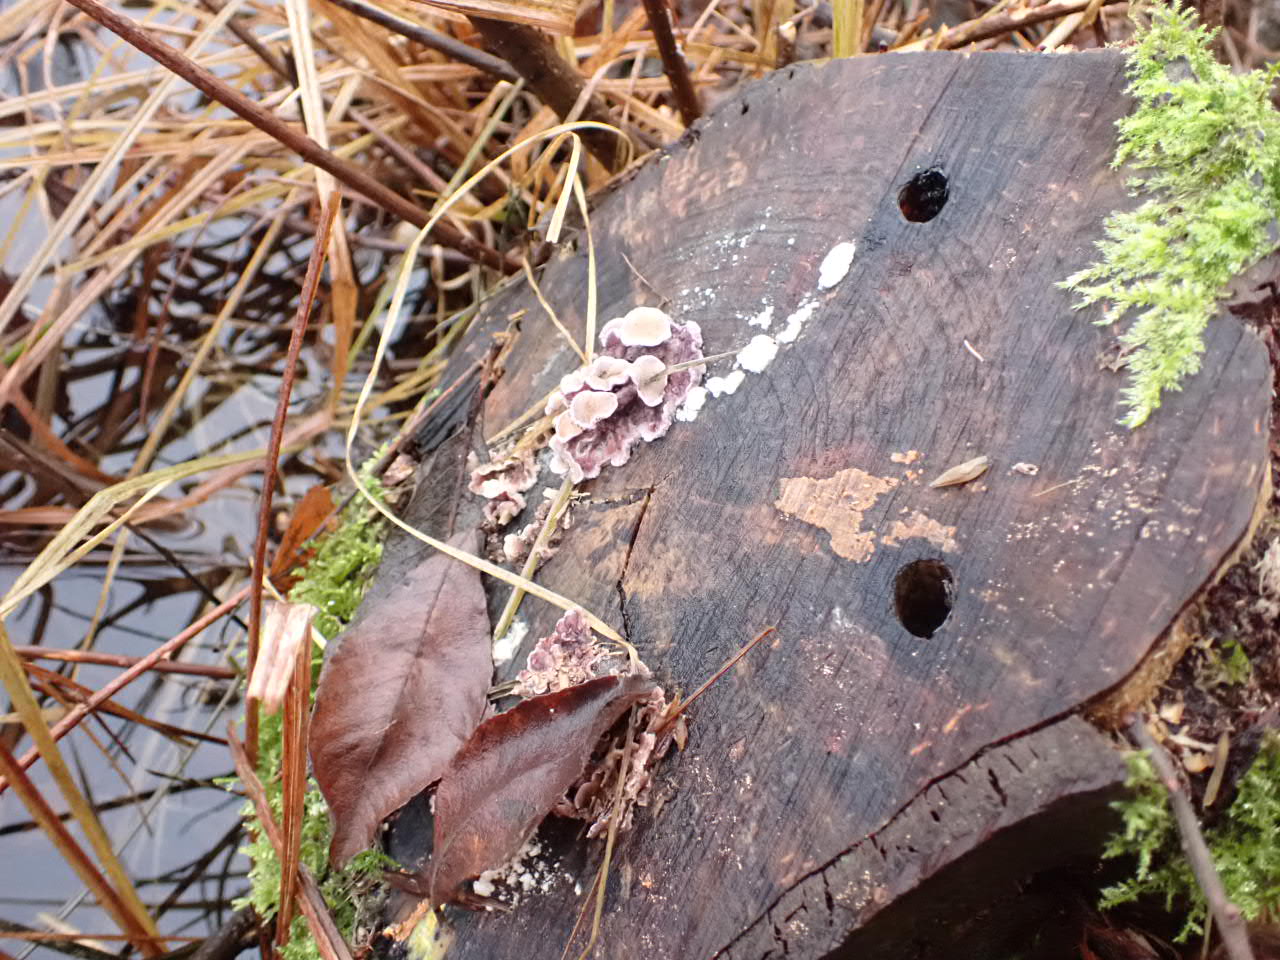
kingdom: Fungi
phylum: Basidiomycota
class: Agaricomycetes
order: Agaricales
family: Cyphellaceae
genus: Chondrostereum
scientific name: Chondrostereum purpureum
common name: purpurlædersvamp
